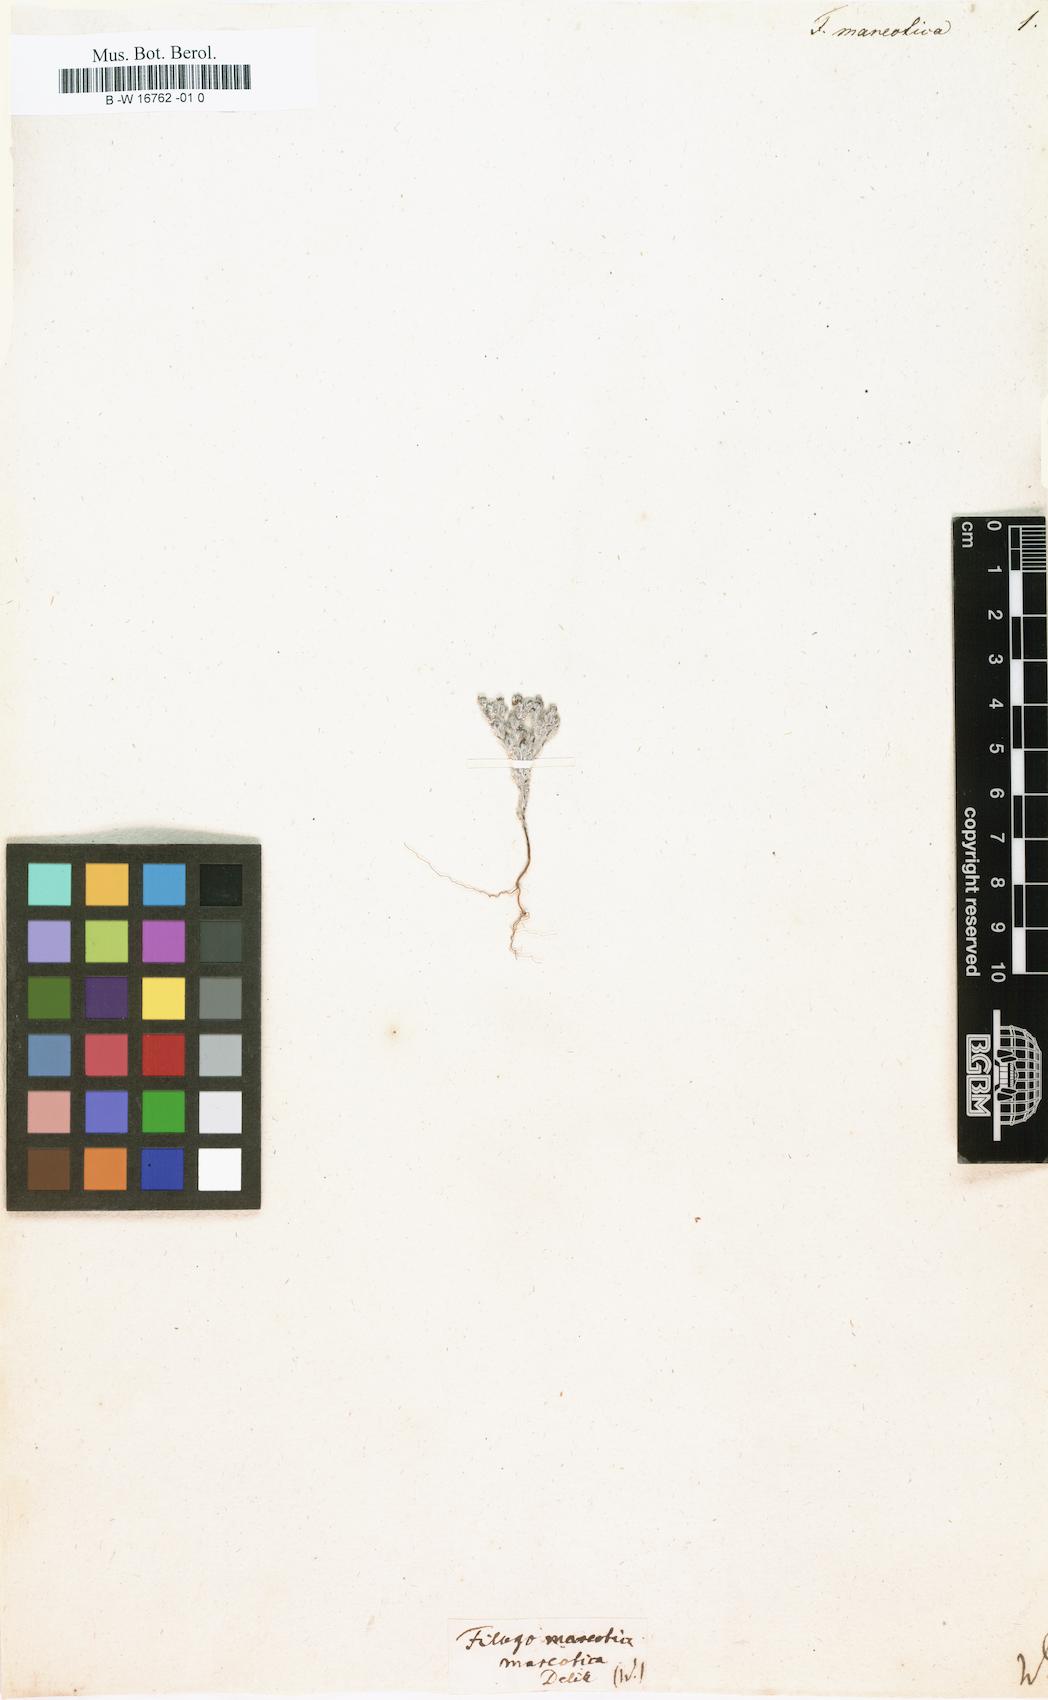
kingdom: Plantae
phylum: Tracheophyta
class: Magnoliopsida
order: Asterales
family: Asteraceae
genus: Filago
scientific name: Filago mareotica
